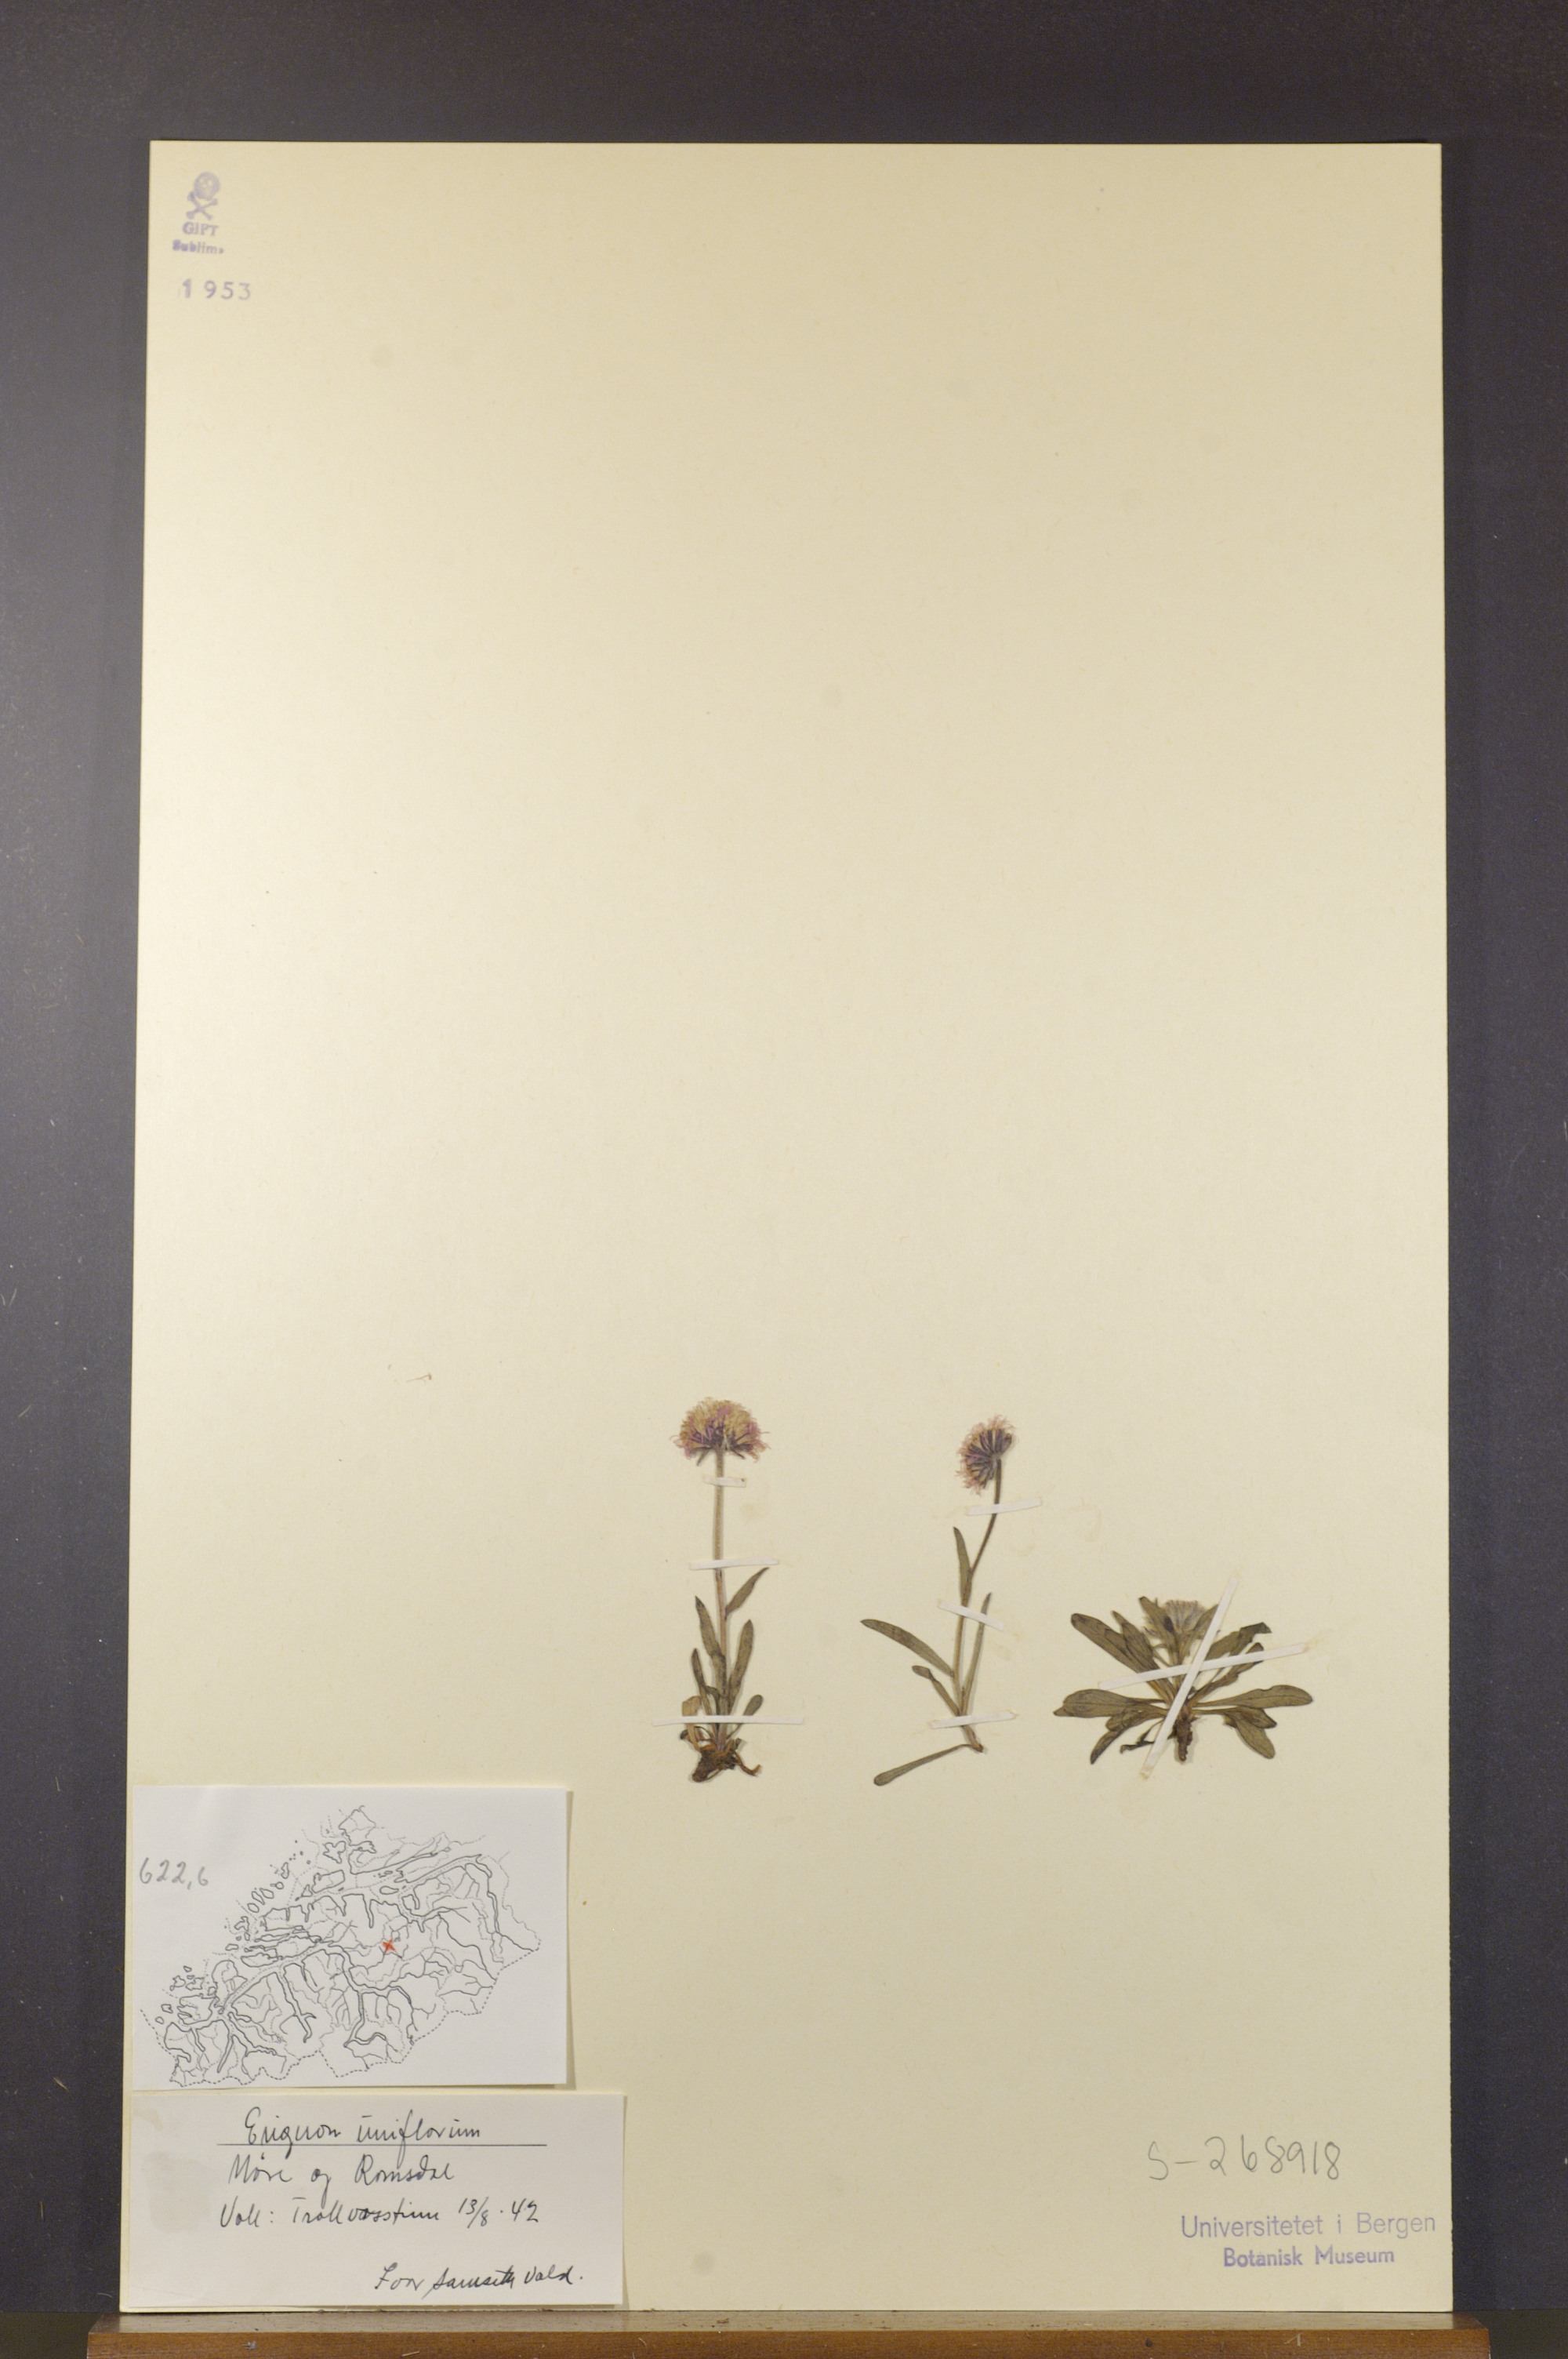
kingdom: Plantae
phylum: Tracheophyta
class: Magnoliopsida
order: Asterales
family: Asteraceae
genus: Erigeron
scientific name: Erigeron uniflorus
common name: Northern daisy
